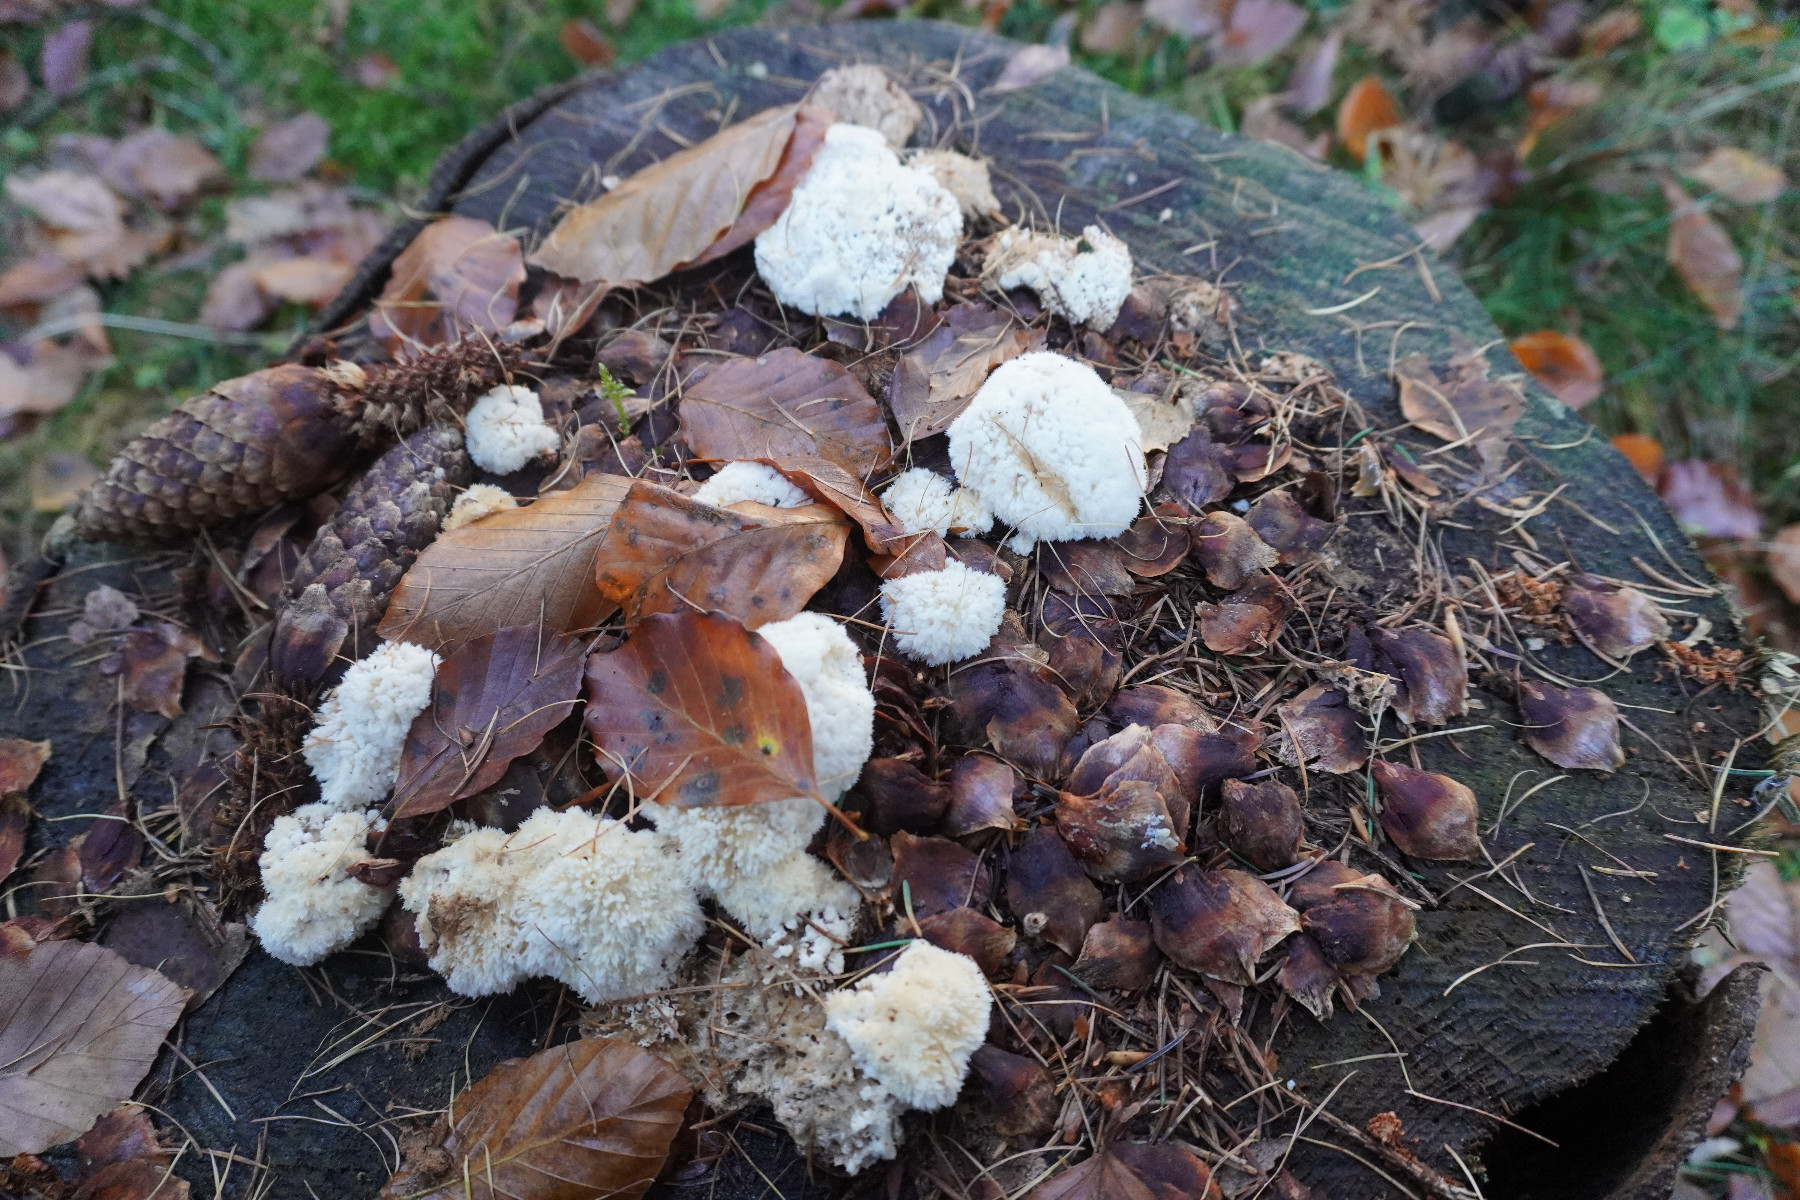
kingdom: Fungi
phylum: Basidiomycota
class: Agaricomycetes
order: Polyporales
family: Dacryobolaceae
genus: Postia
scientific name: Postia ptychogaster
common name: støvende kødporesvamp
